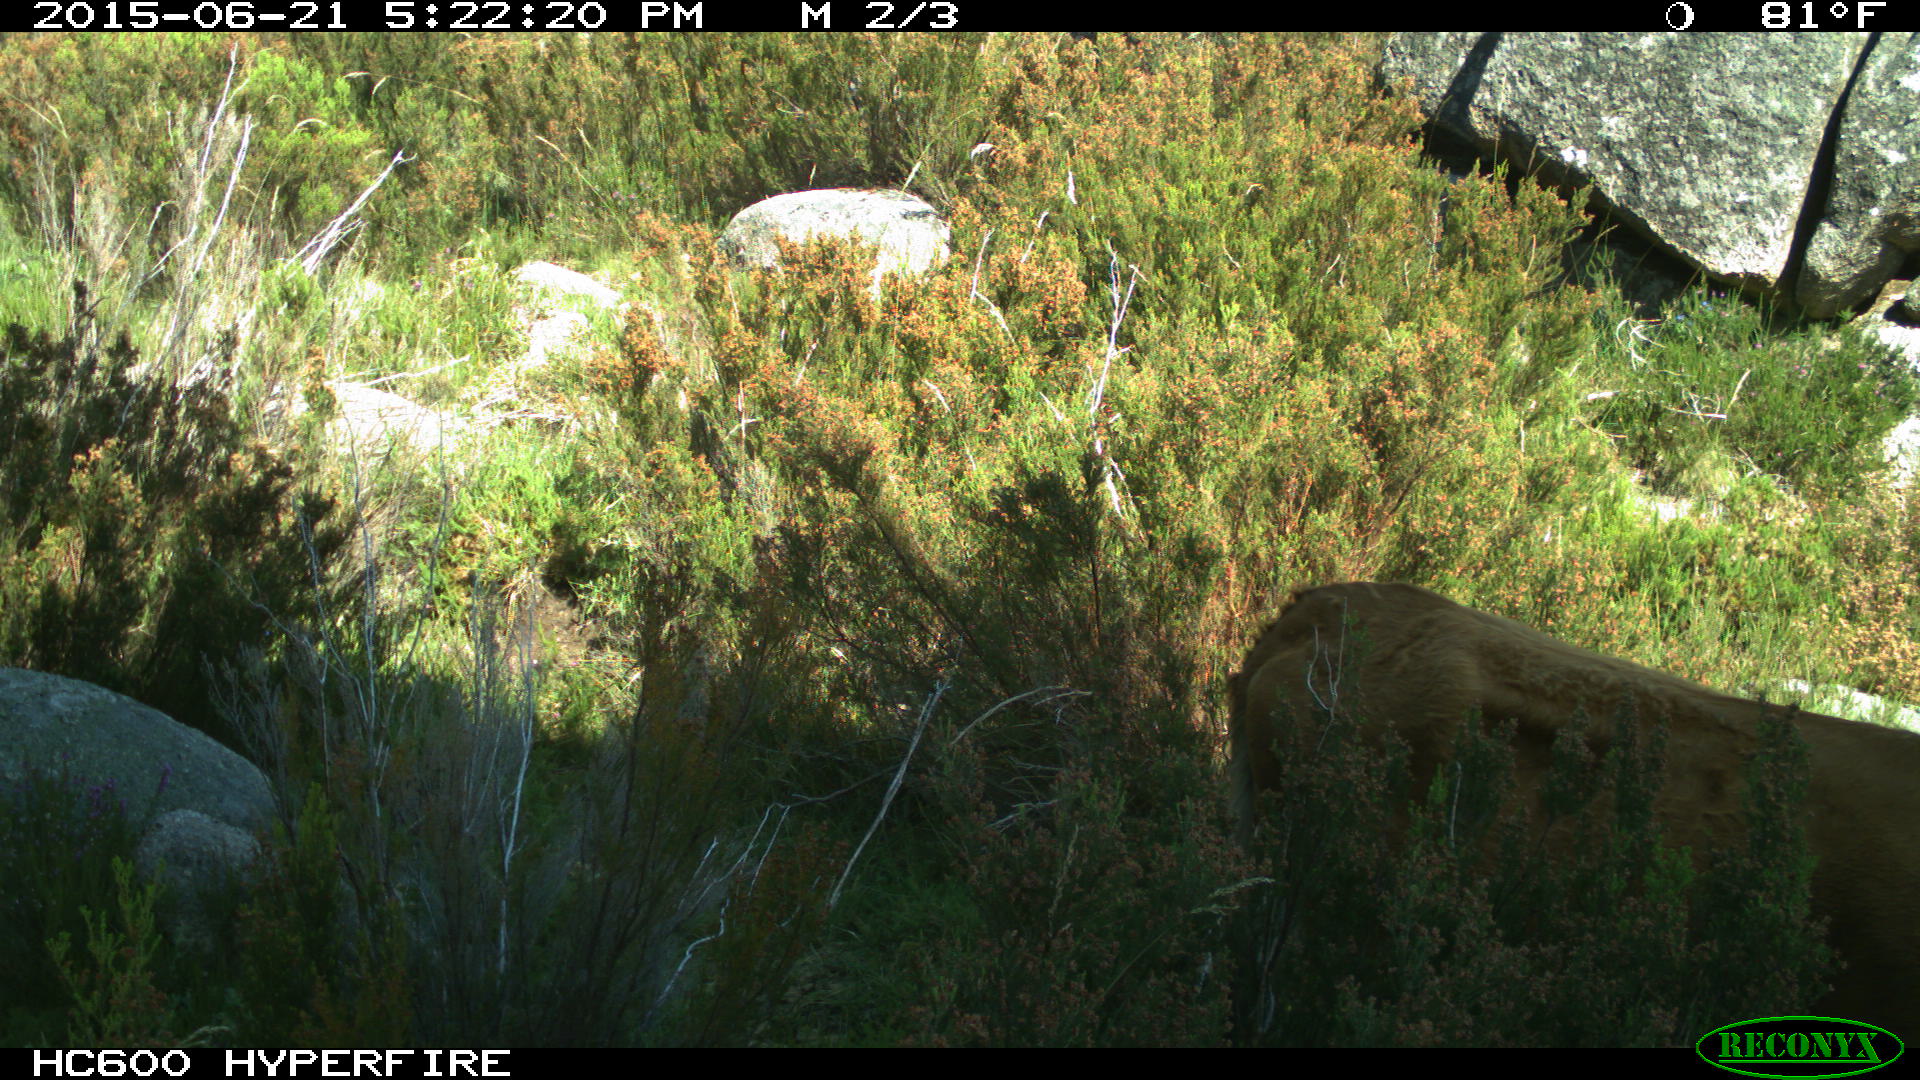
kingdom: Animalia
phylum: Chordata
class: Mammalia
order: Artiodactyla
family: Bovidae
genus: Bos
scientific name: Bos taurus
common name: Domesticated cattle
